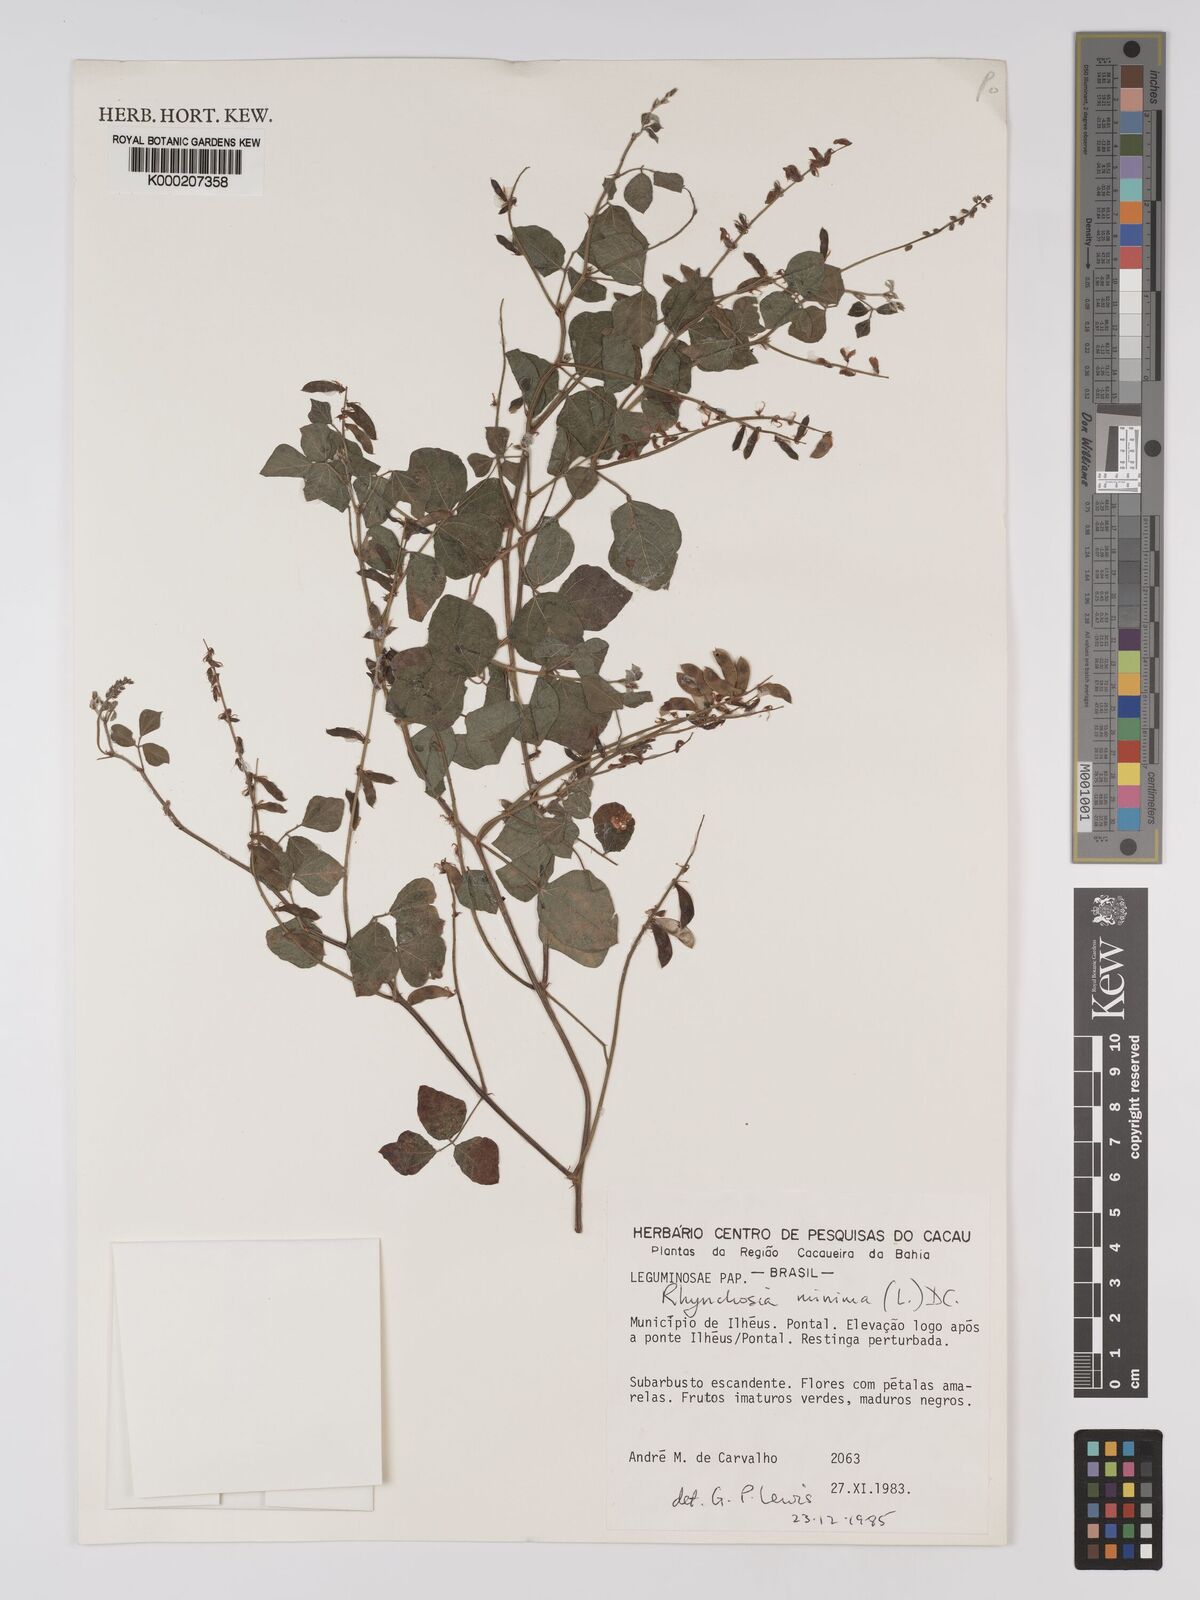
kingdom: Plantae
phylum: Tracheophyta
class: Magnoliopsida
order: Fabales
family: Fabaceae
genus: Rhynchosia
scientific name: Rhynchosia minima
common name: Least snoutbean
